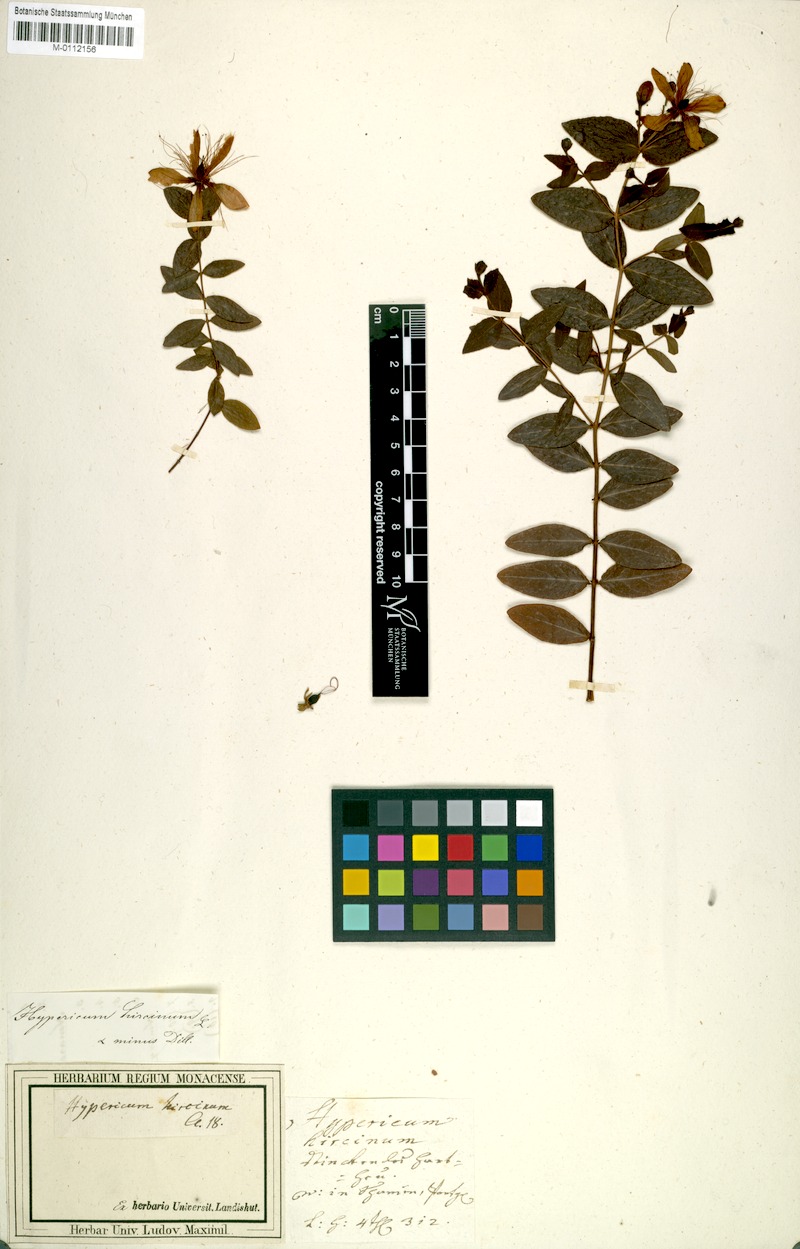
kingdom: Plantae
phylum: Tracheophyta
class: Magnoliopsida
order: Malpighiales
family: Hypericaceae
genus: Hypericum
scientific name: Hypericum hircinum
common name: Stinking tutsan
